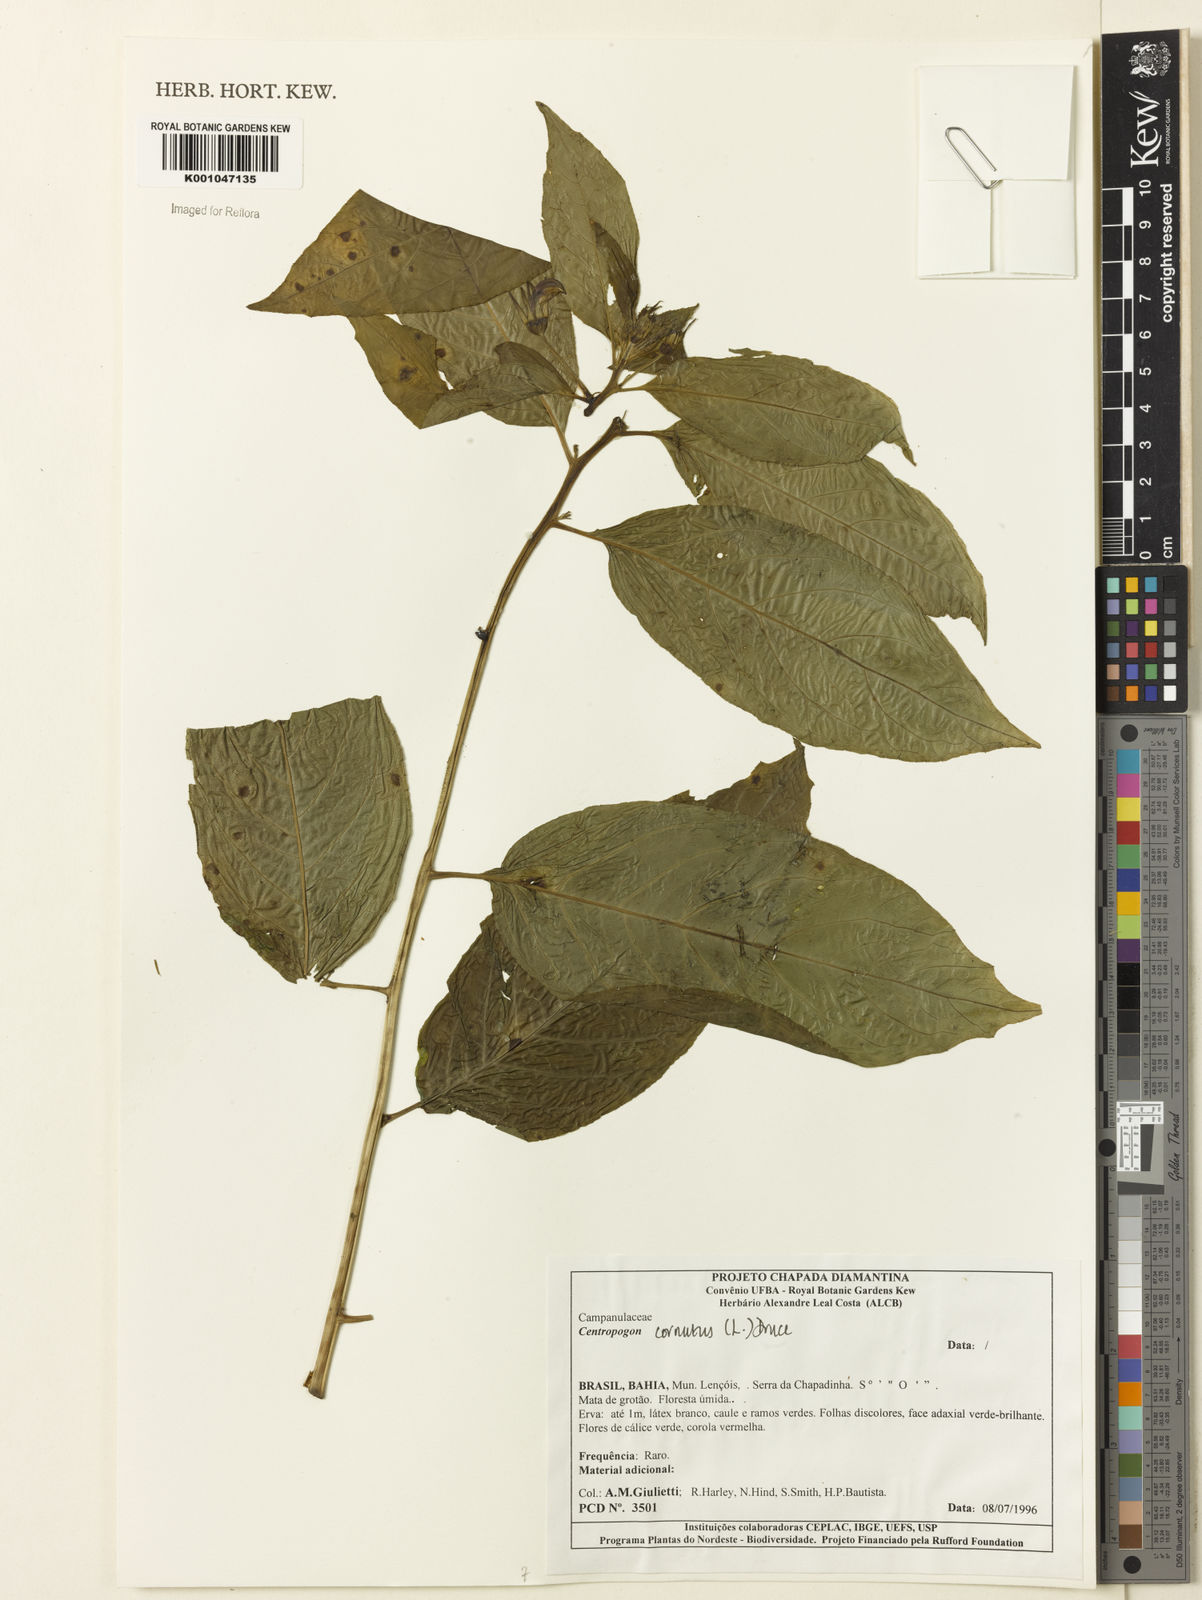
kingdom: Plantae
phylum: Tracheophyta
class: Magnoliopsida
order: Asterales
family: Campanulaceae
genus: Centropogon
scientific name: Centropogon cornutus
